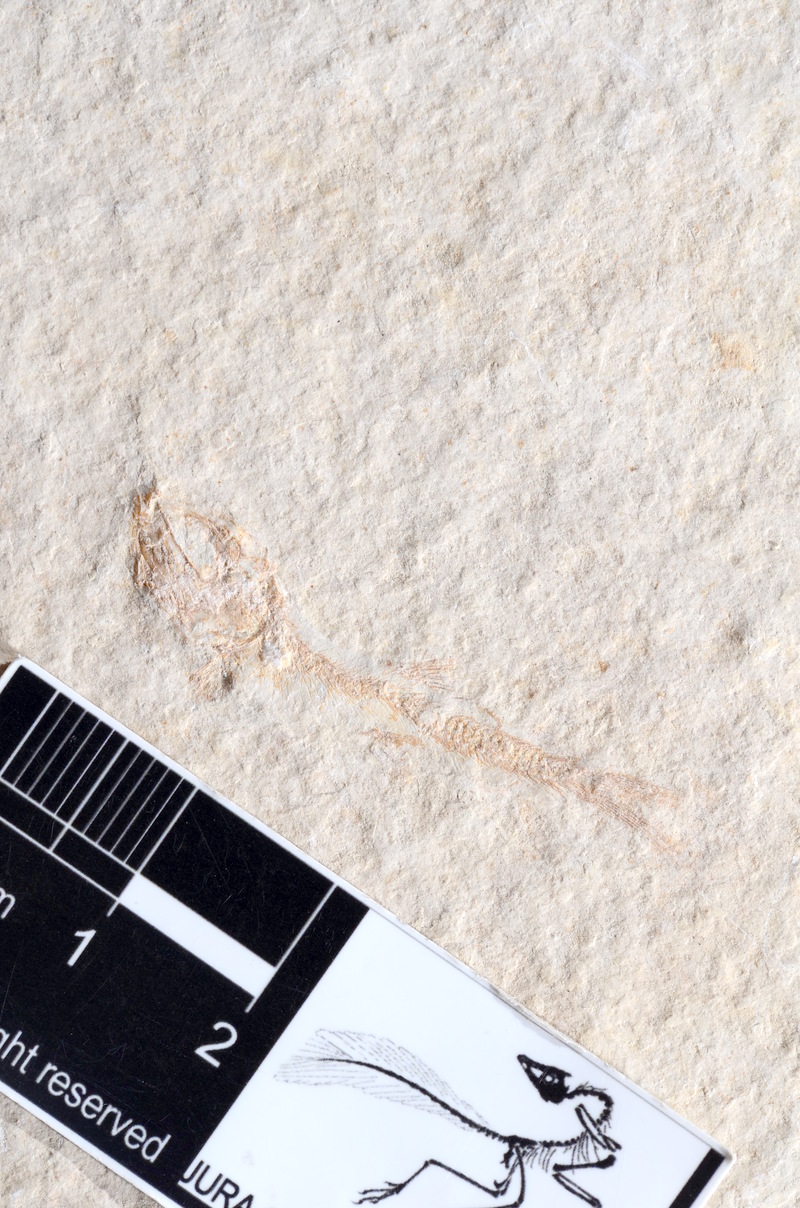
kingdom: Animalia
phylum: Chordata
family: Ascalaboidae
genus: Tharsis
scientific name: Tharsis dubius
